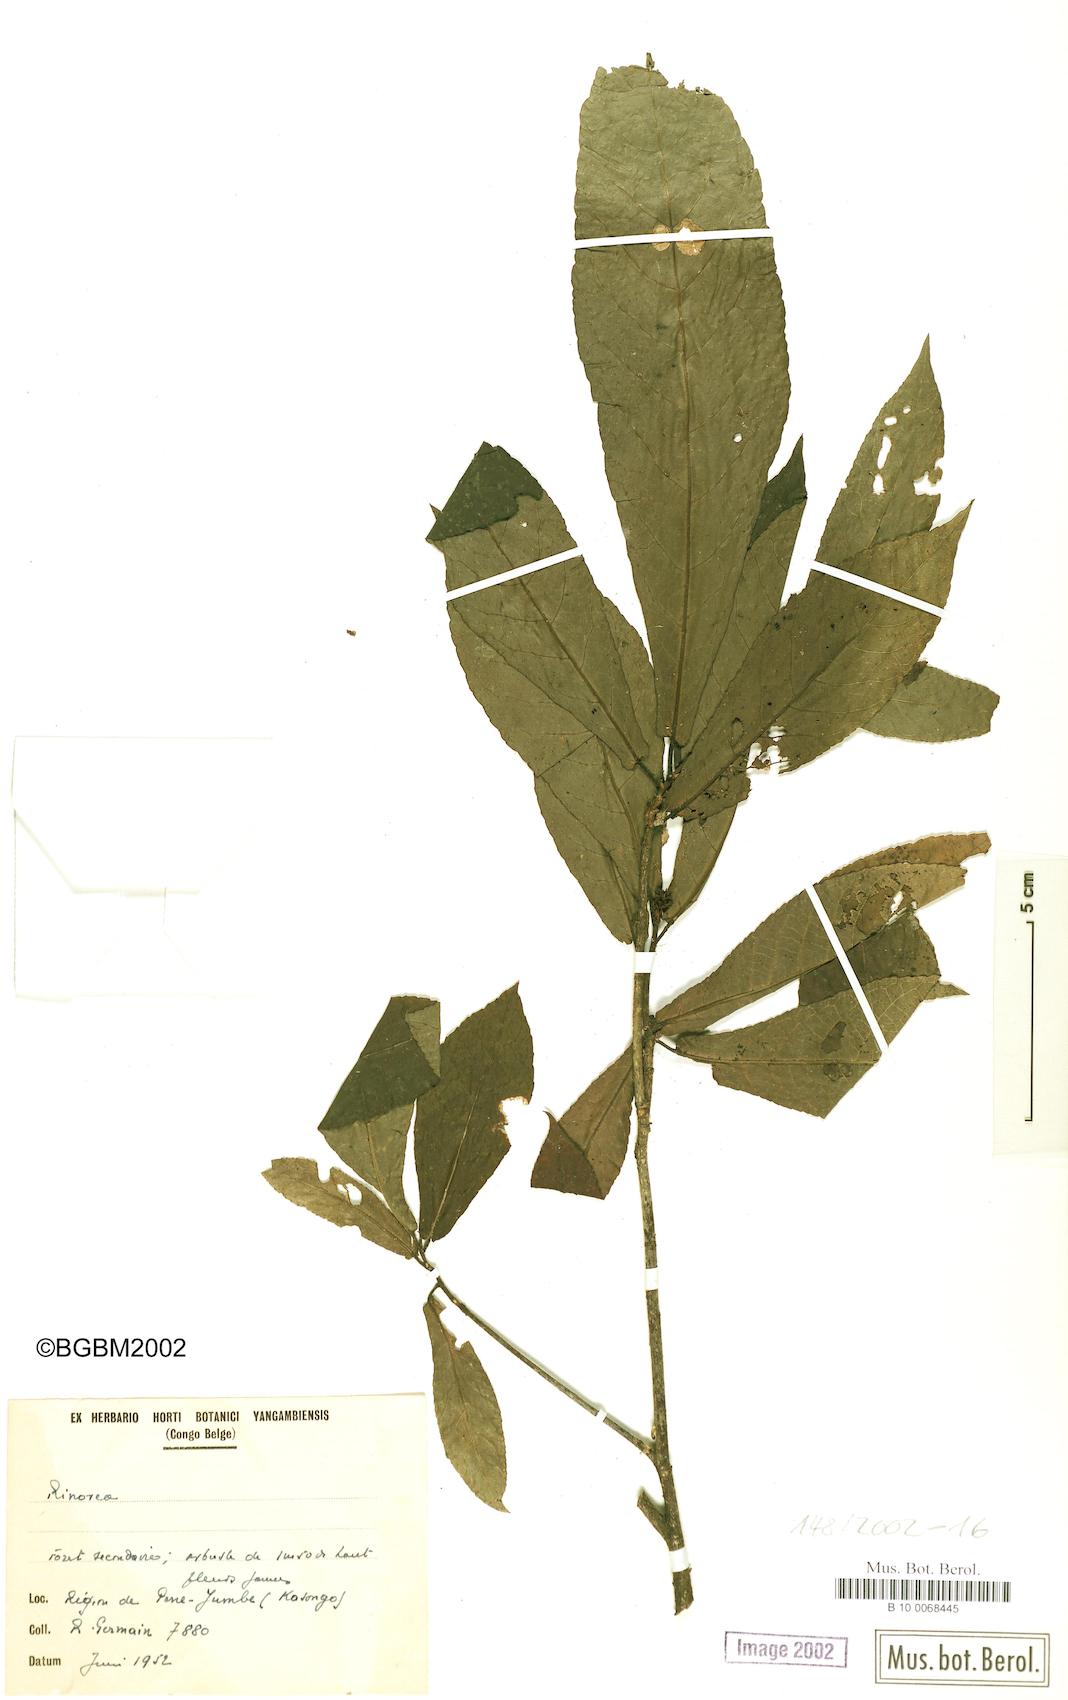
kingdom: Plantae
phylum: Tracheophyta
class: Magnoliopsida
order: Malpighiales
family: Violaceae
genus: Rinorea
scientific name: Rinorea
